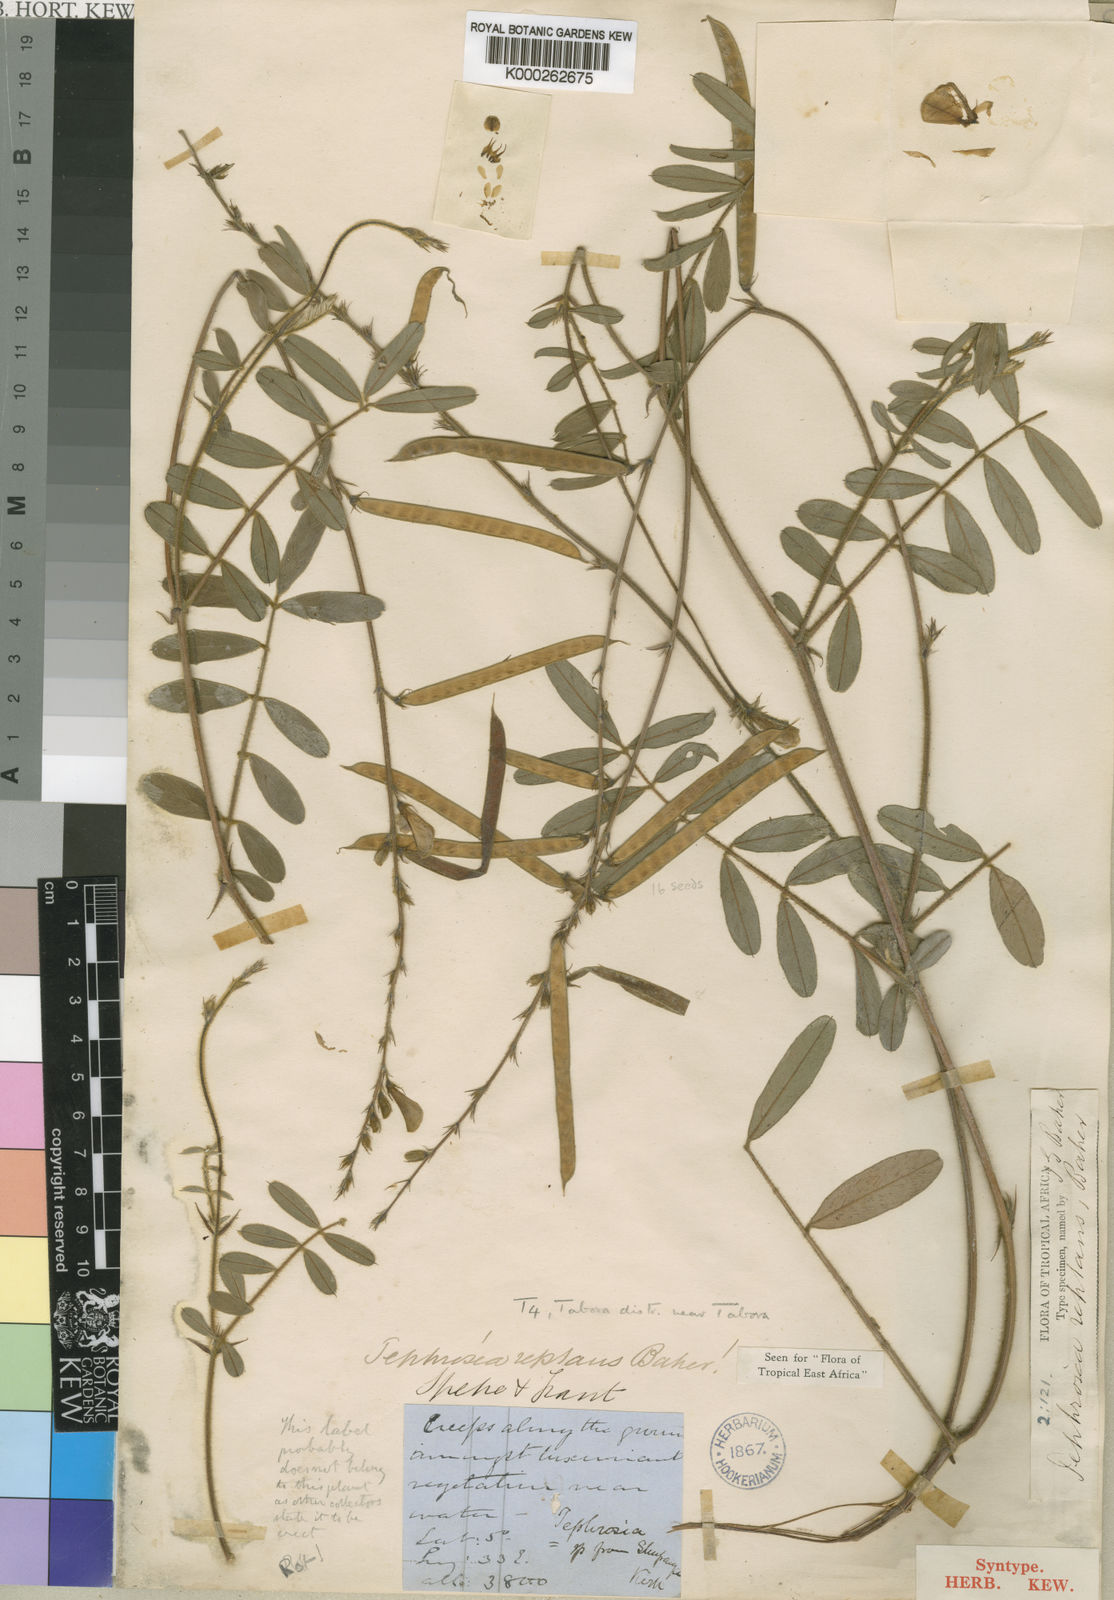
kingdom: Plantae
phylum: Tracheophyta
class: Magnoliopsida
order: Fabales
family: Fabaceae
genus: Tephrosia
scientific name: Tephrosia reptans
